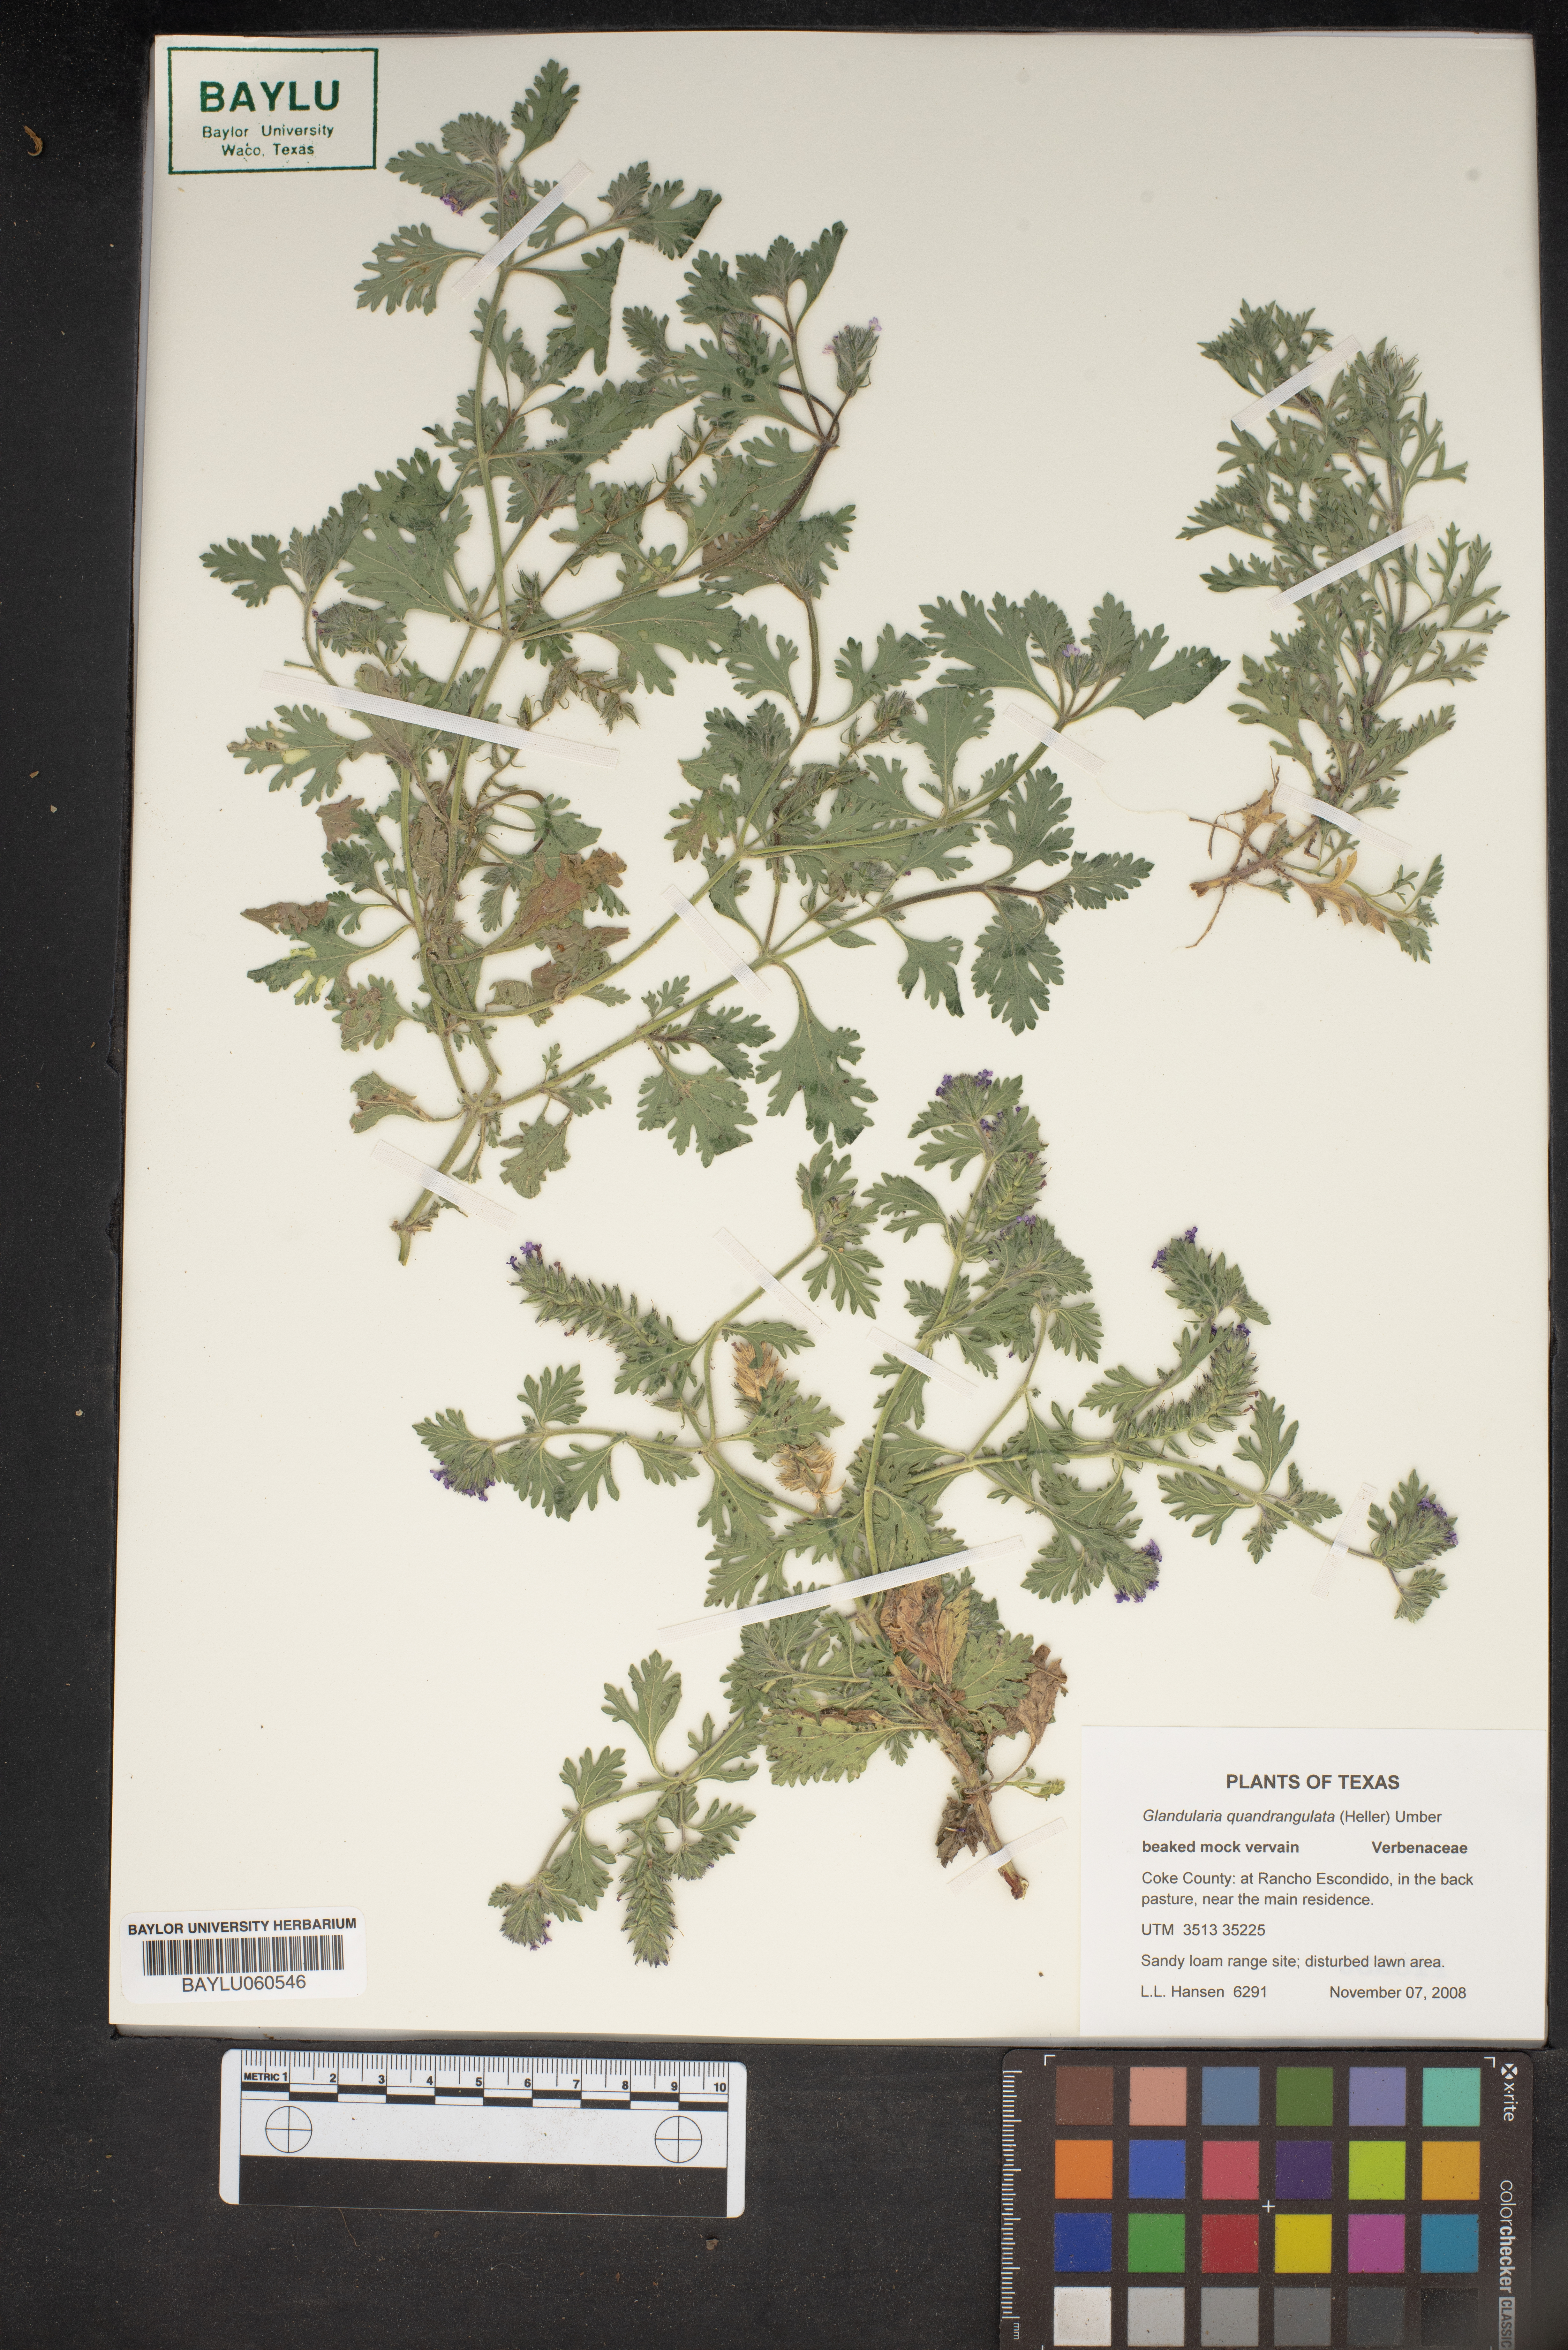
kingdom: Plantae
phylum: Tracheophyta
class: Magnoliopsida
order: Lamiales
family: Verbenaceae
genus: Verbena
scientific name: Verbena quadrangulata
